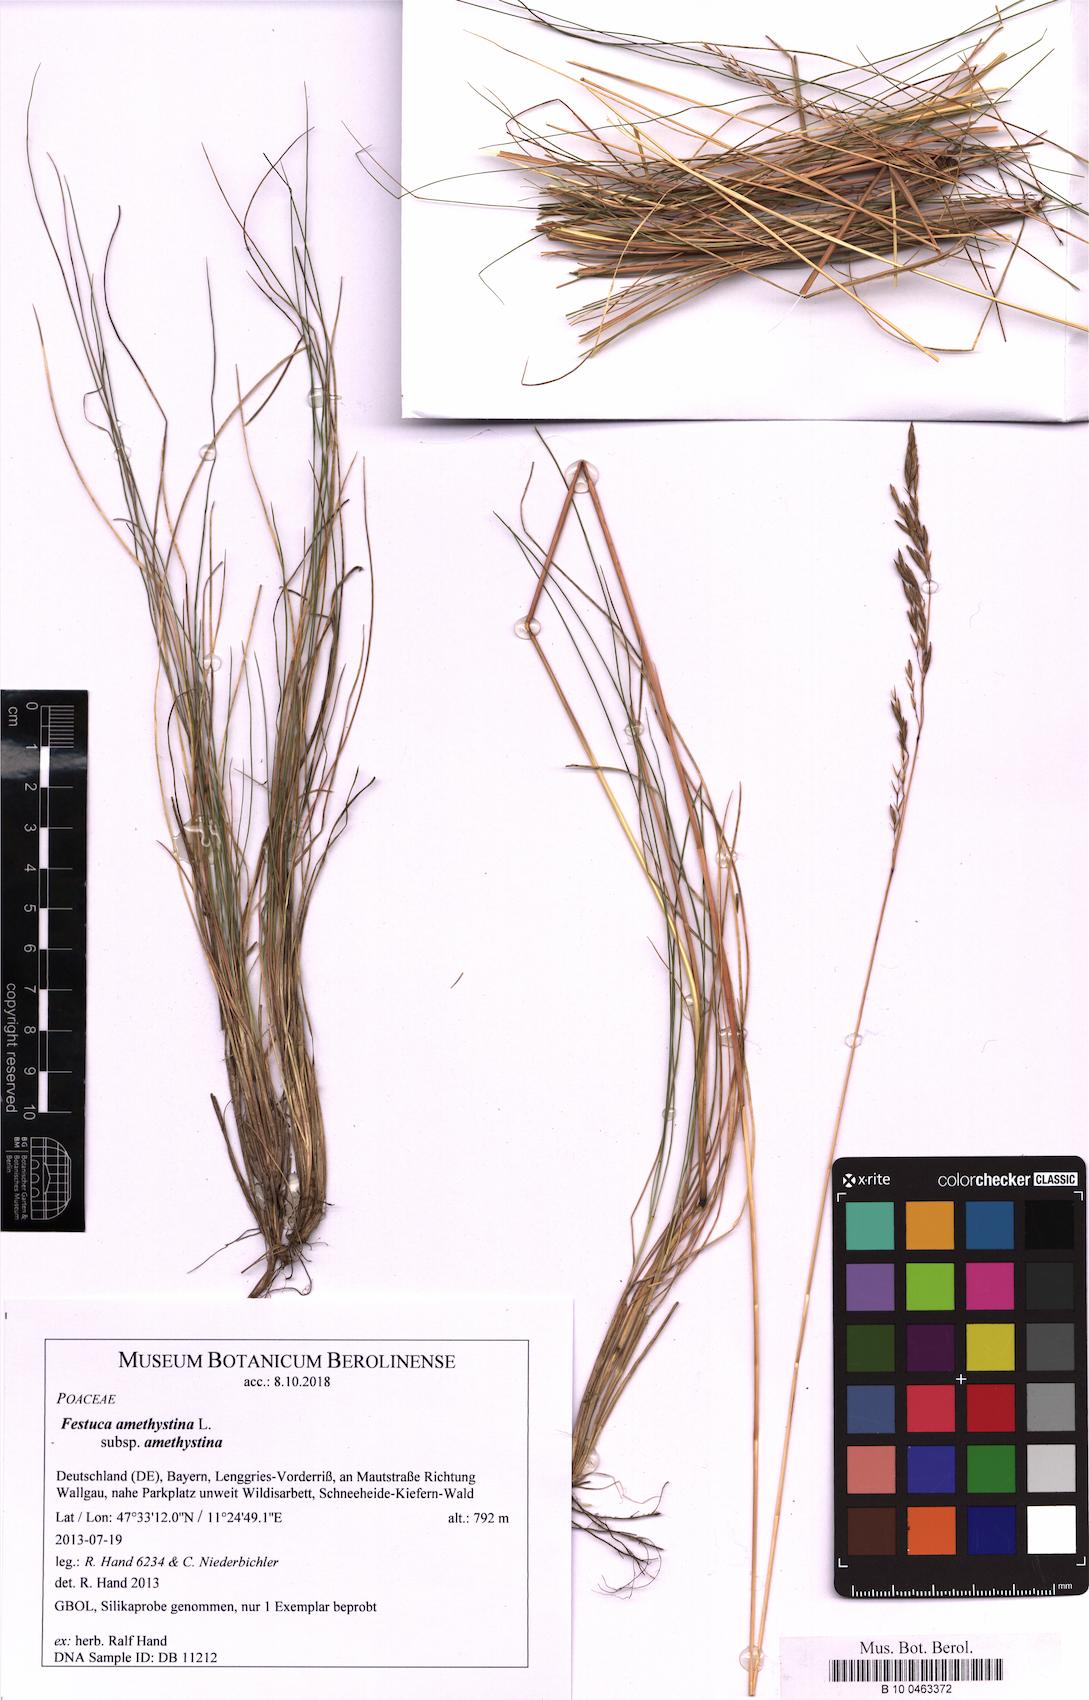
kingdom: Plantae
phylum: Tracheophyta
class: Liliopsida
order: Poales
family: Poaceae
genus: Festuca
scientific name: Festuca amethystina
